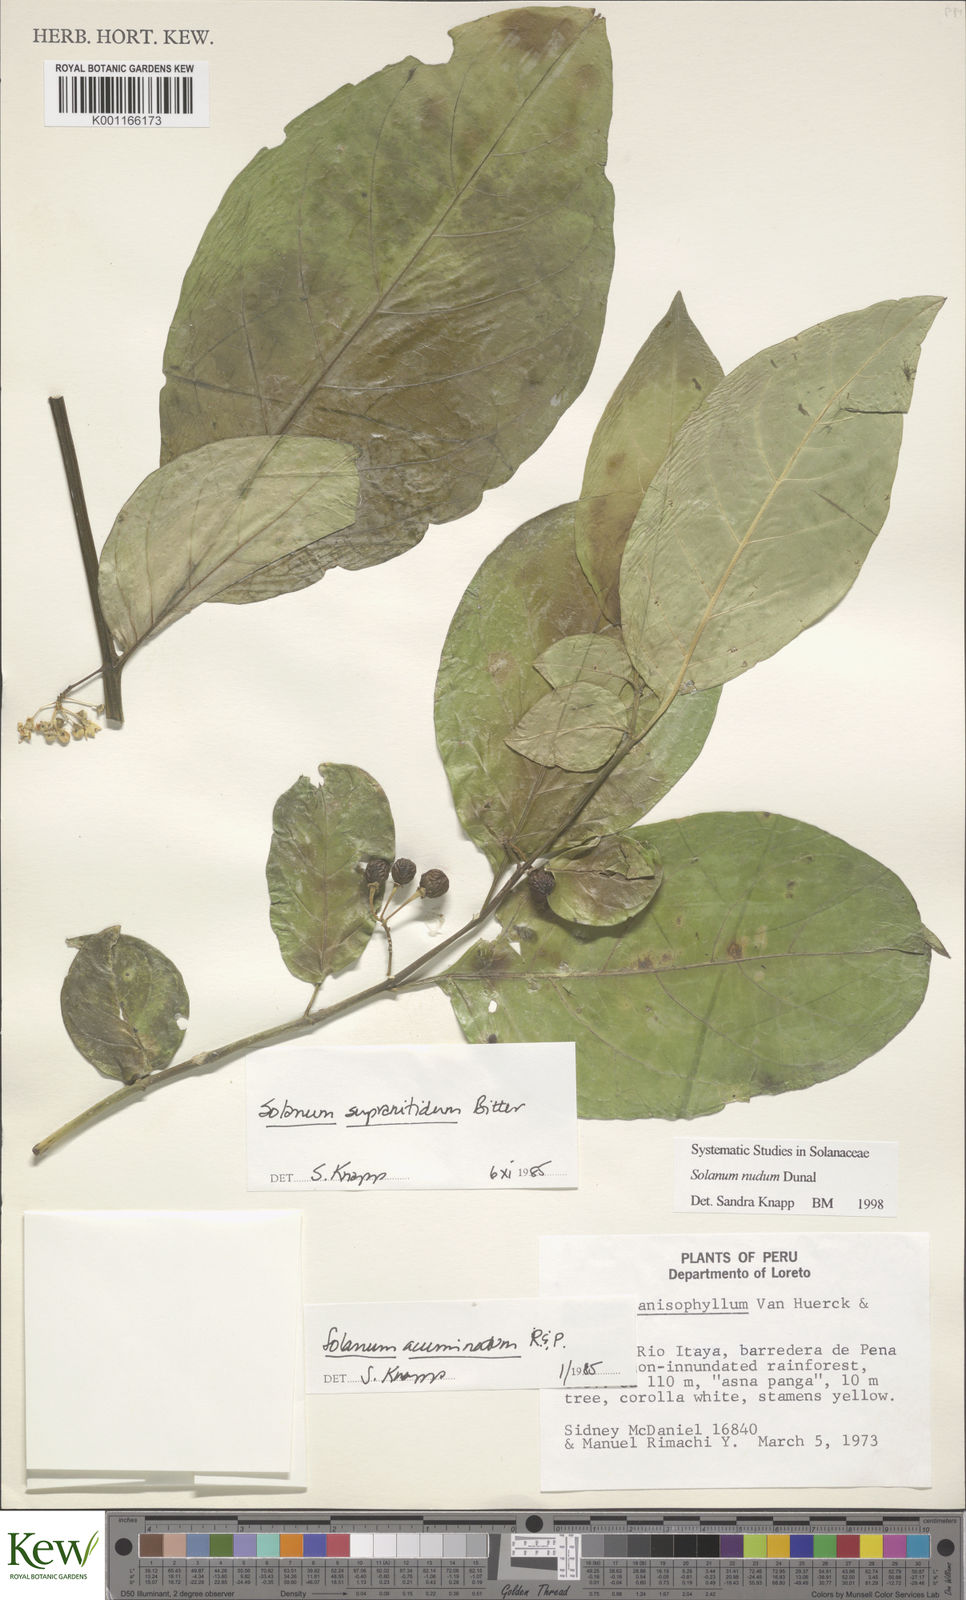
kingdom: Plantae
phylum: Tracheophyta
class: Magnoliopsida
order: Solanales
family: Solanaceae
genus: Solanum
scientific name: Solanum nudum
